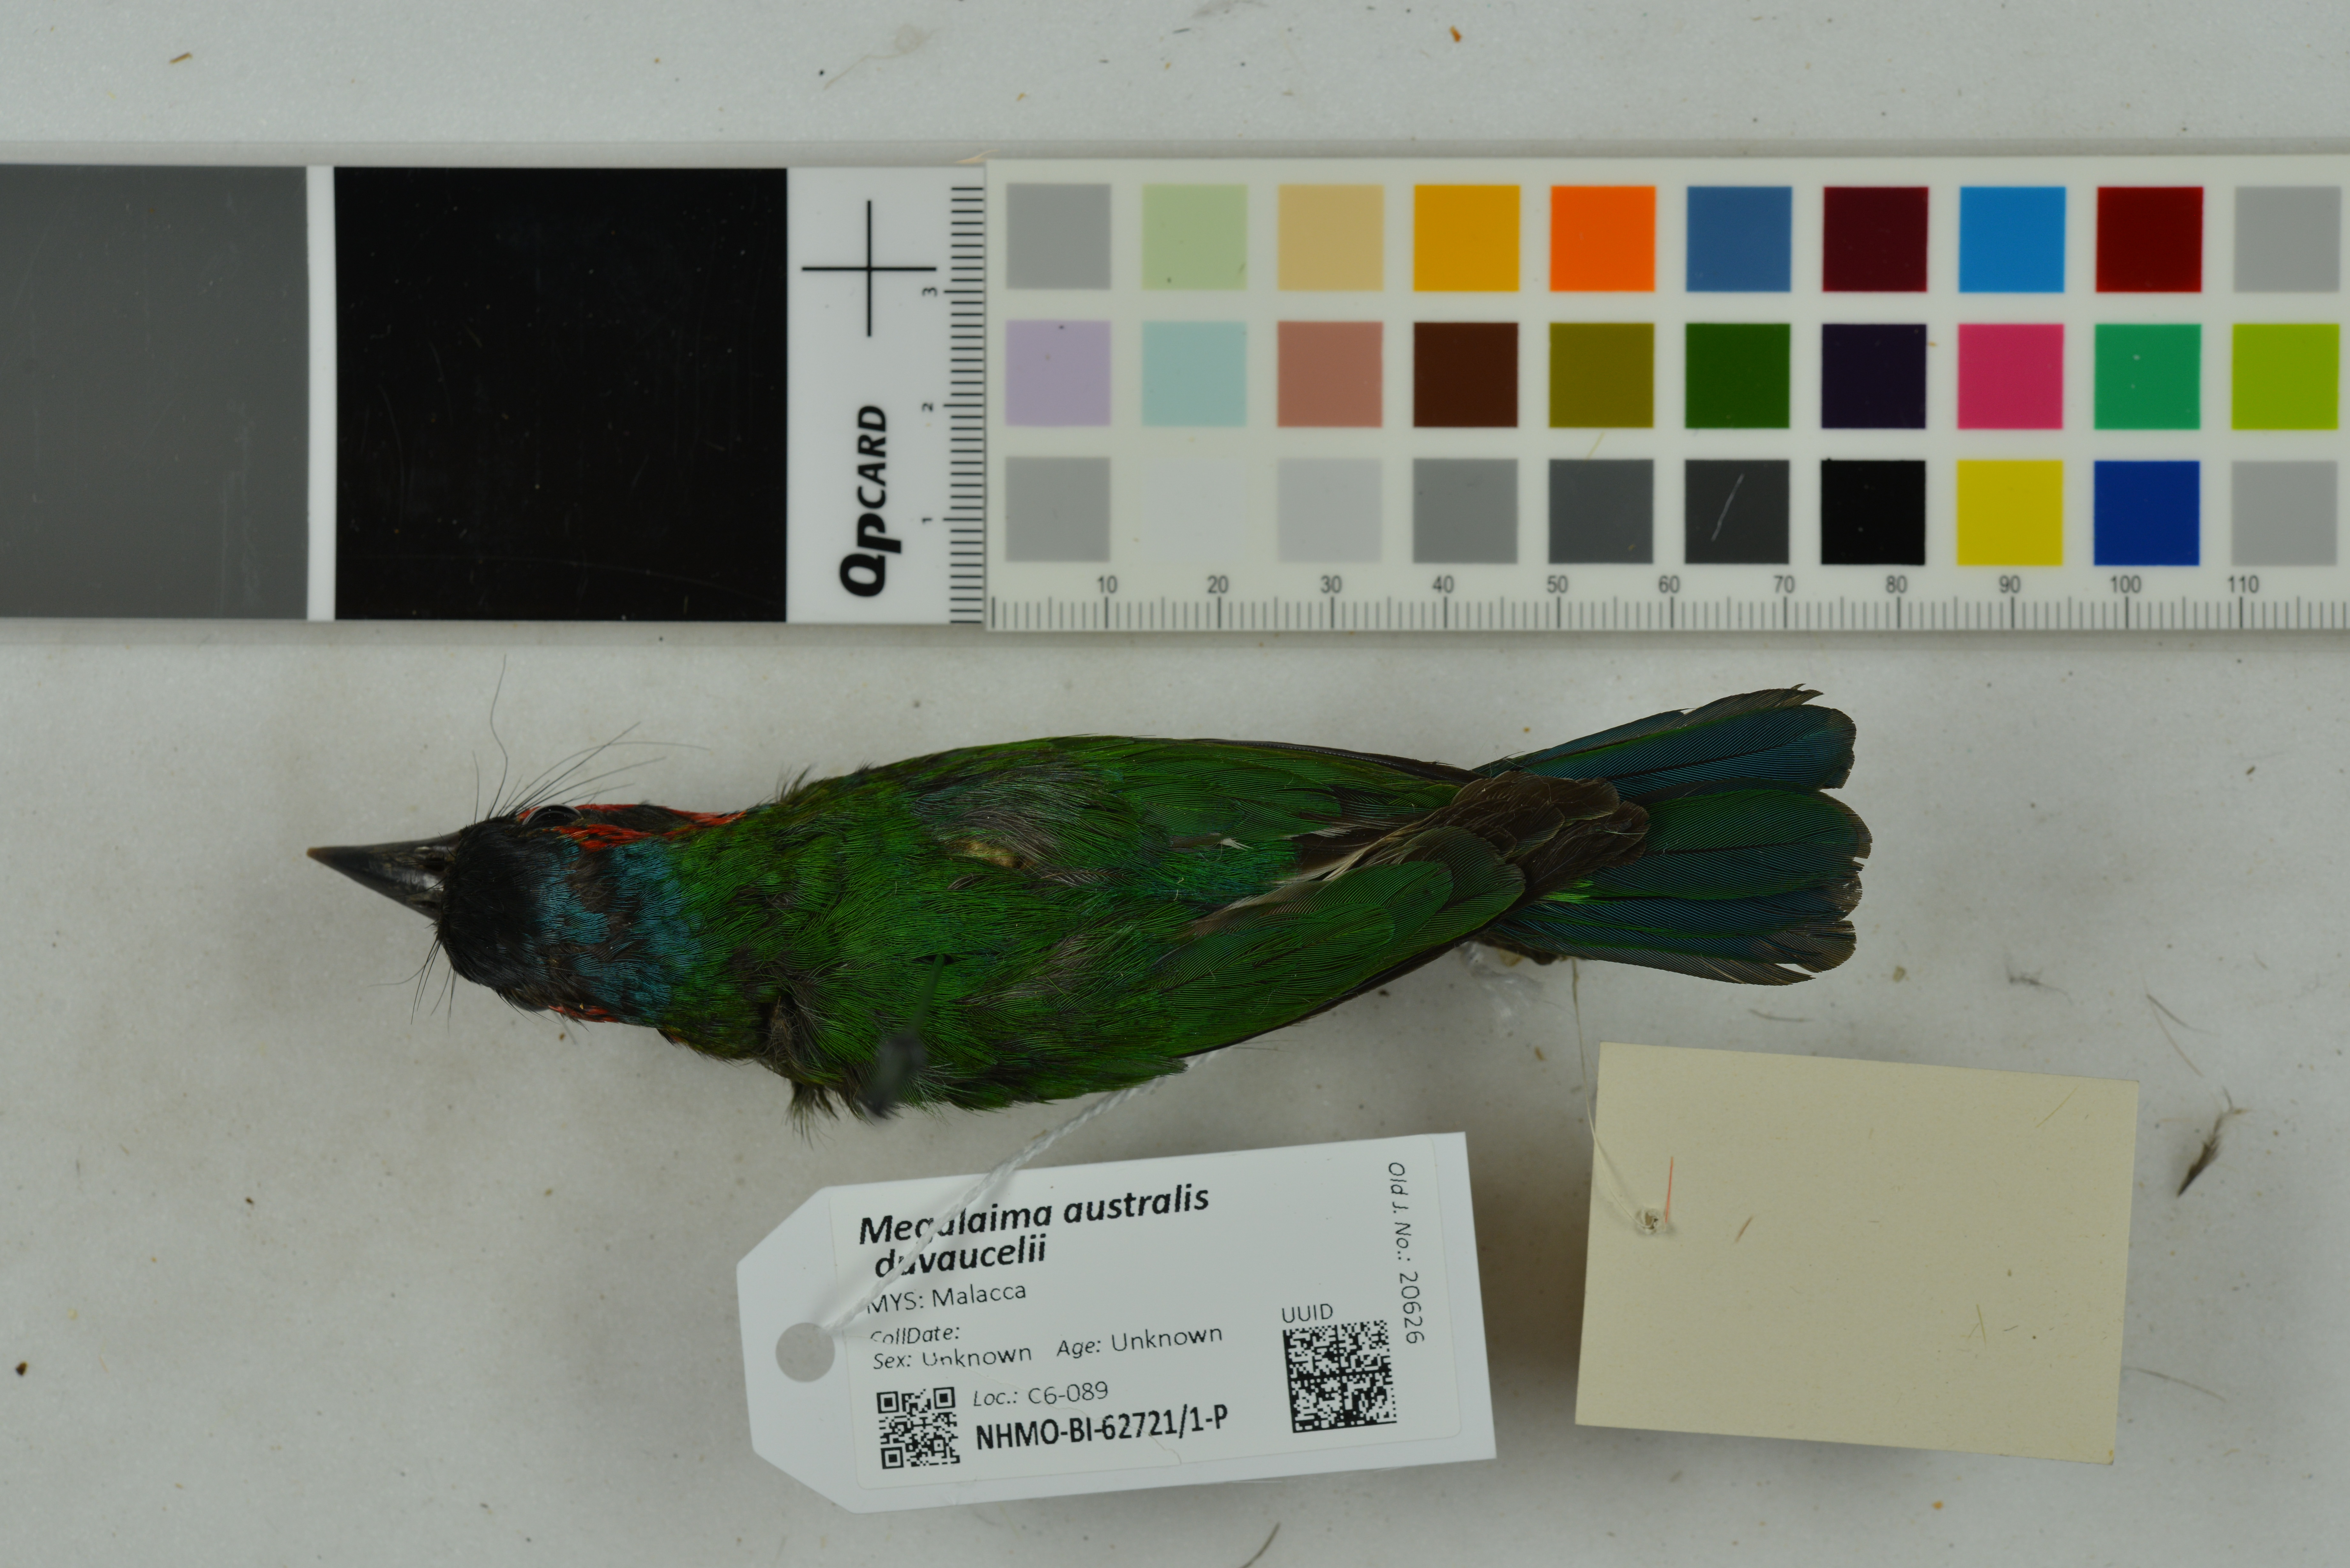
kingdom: Animalia
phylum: Chordata
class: Aves
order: Piciformes
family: Megalaimidae
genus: Psilopogon
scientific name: Psilopogon duvaucelii
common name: Blue-eared barbet
